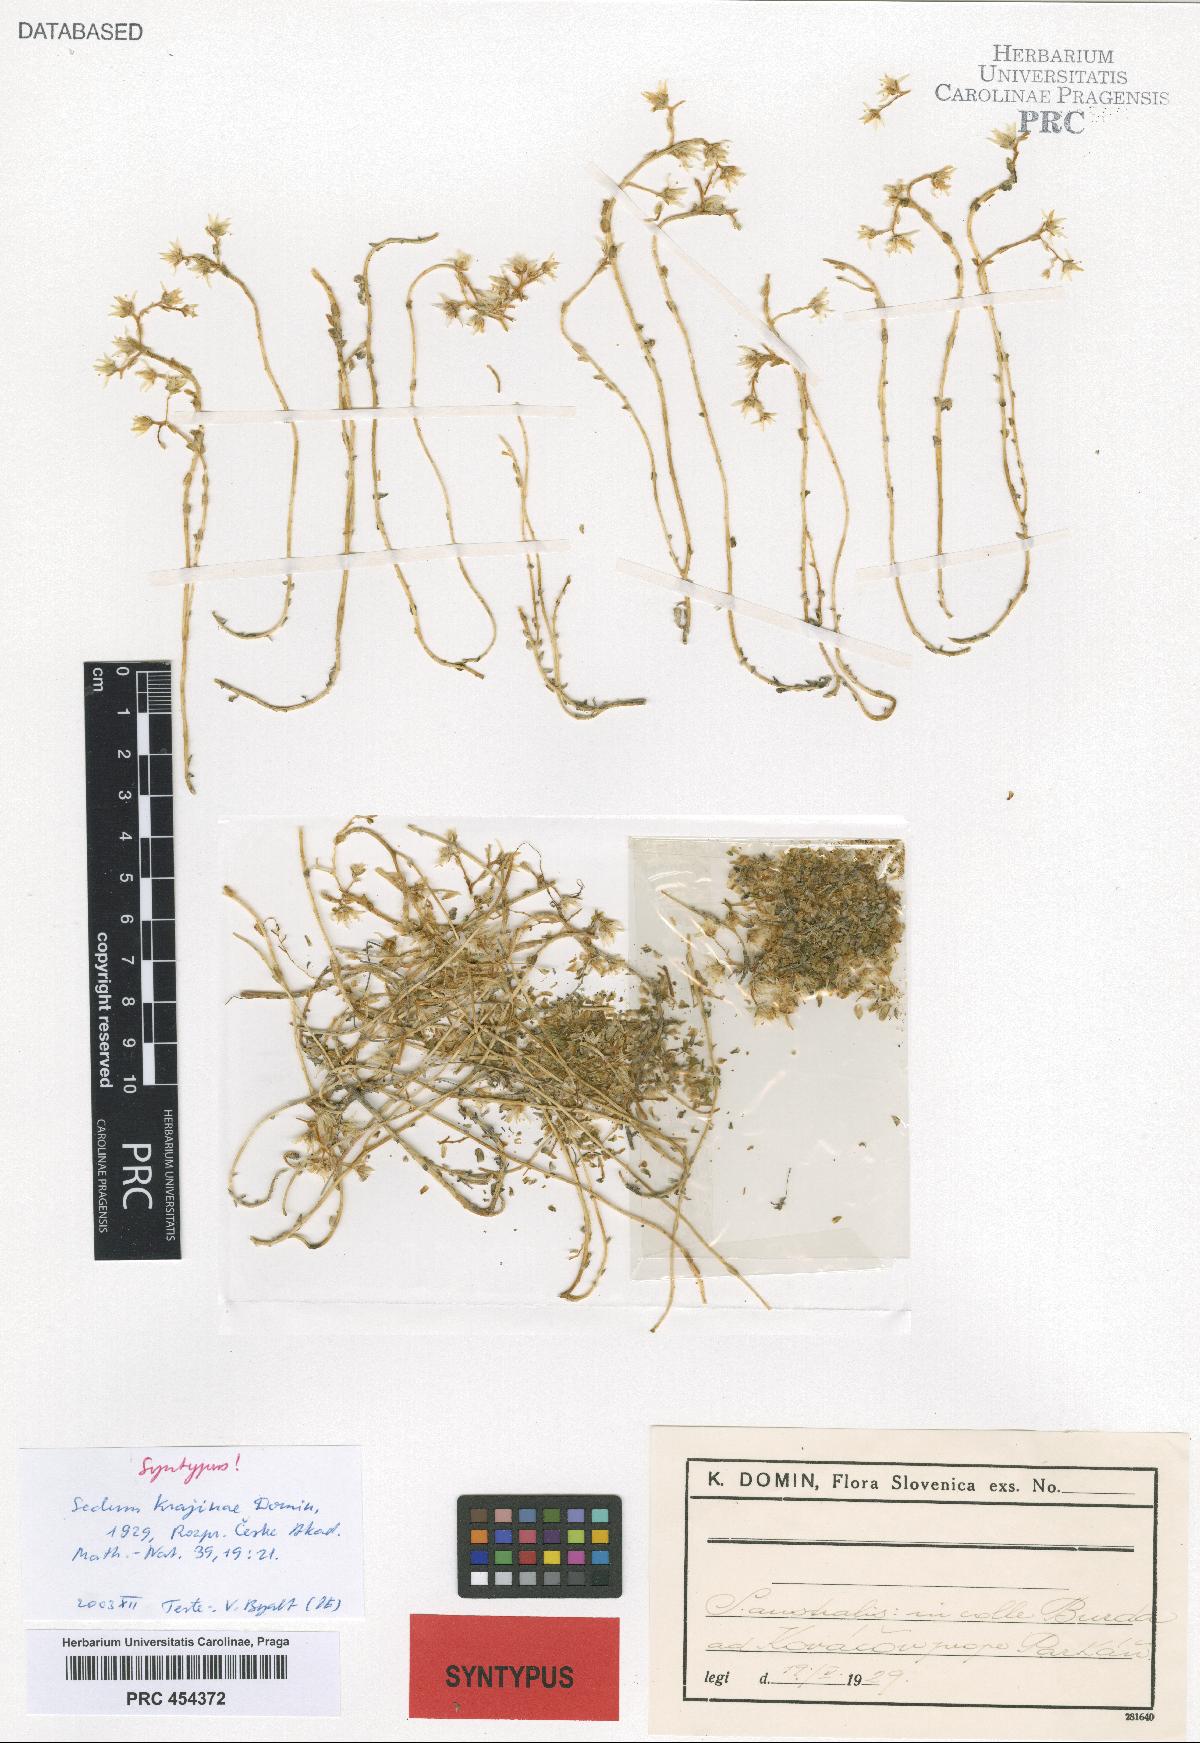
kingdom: Plantae
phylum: Tracheophyta
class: Magnoliopsida
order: Saxifragales
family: Crassulaceae
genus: Sedum
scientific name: Sedum acre
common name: Biting stonecrop
